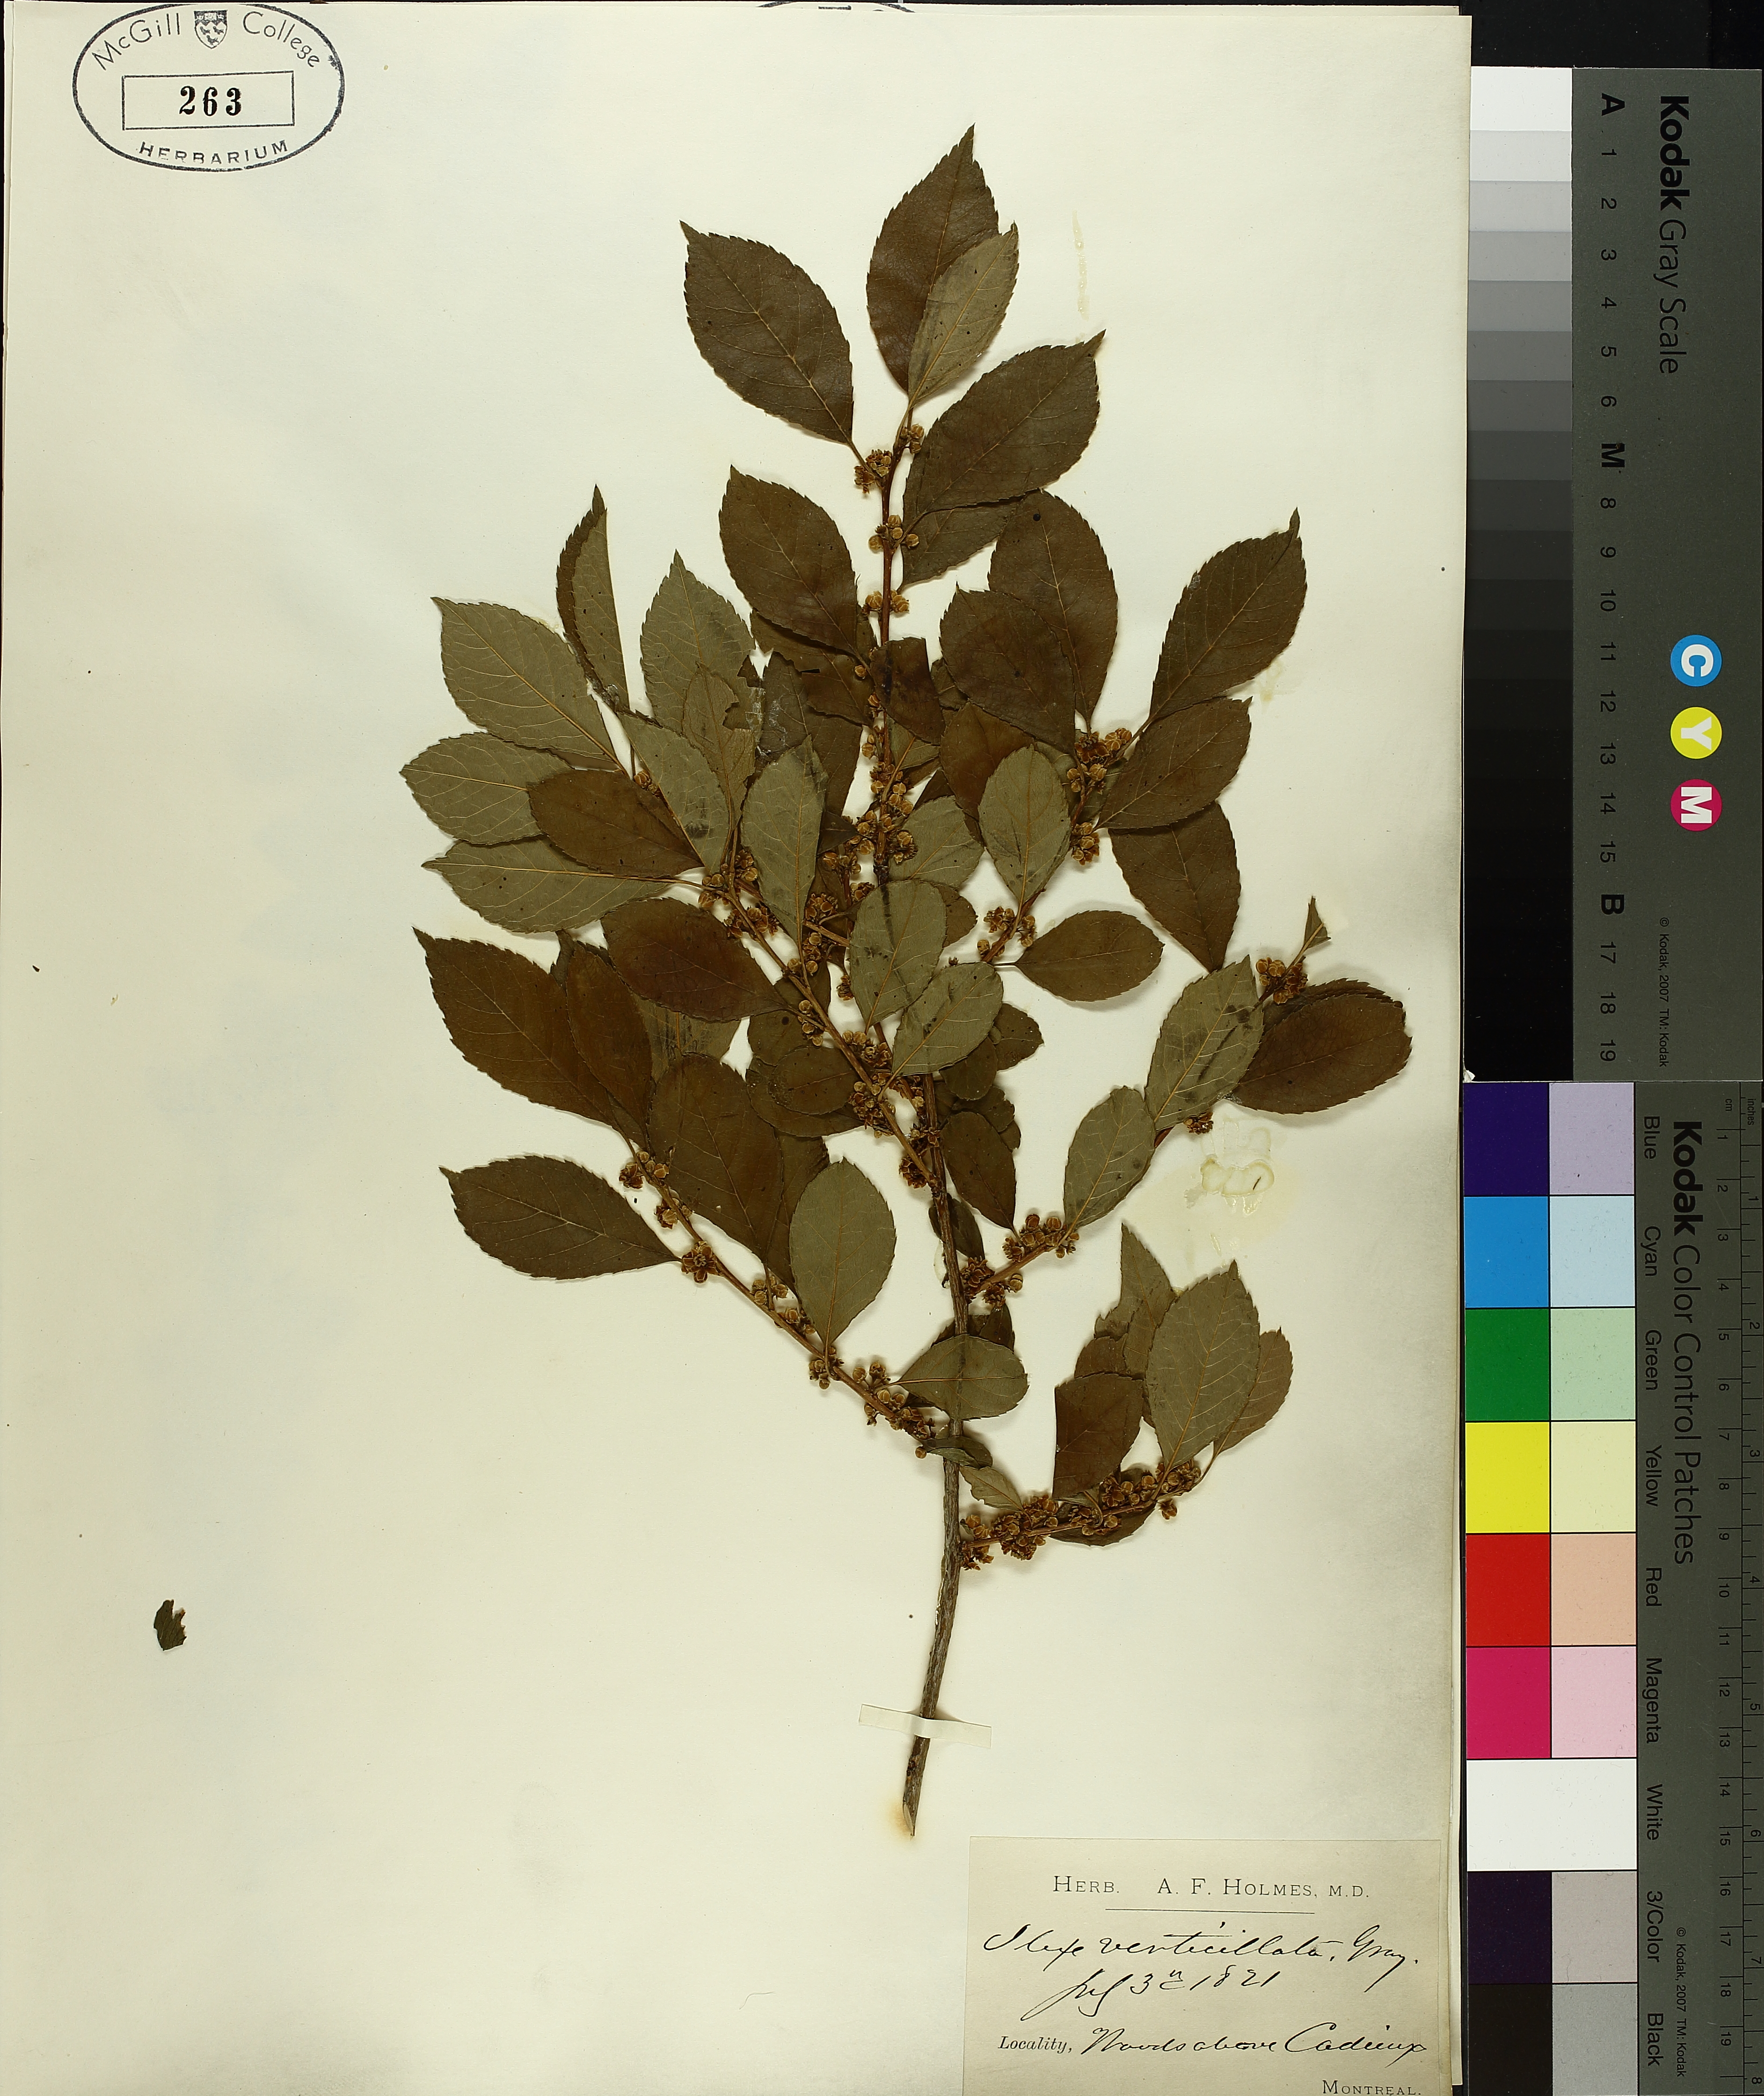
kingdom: Plantae
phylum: Tracheophyta
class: Magnoliopsida
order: Aquifoliales
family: Aquifoliaceae
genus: Ilex
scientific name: Ilex verticillata
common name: Virginia winterberry
